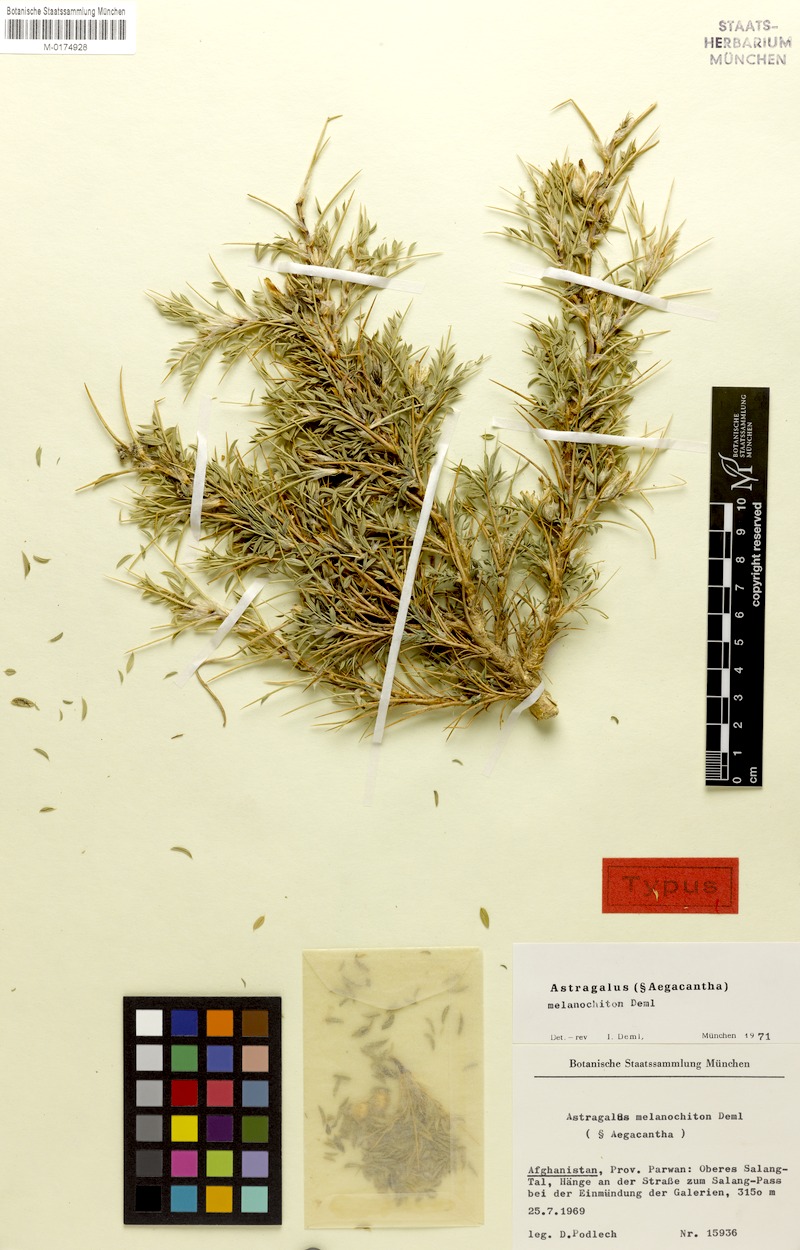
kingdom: Plantae
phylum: Tracheophyta
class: Magnoliopsida
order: Fabales
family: Fabaceae
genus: Astragalus
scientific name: Astragalus melanochiton
